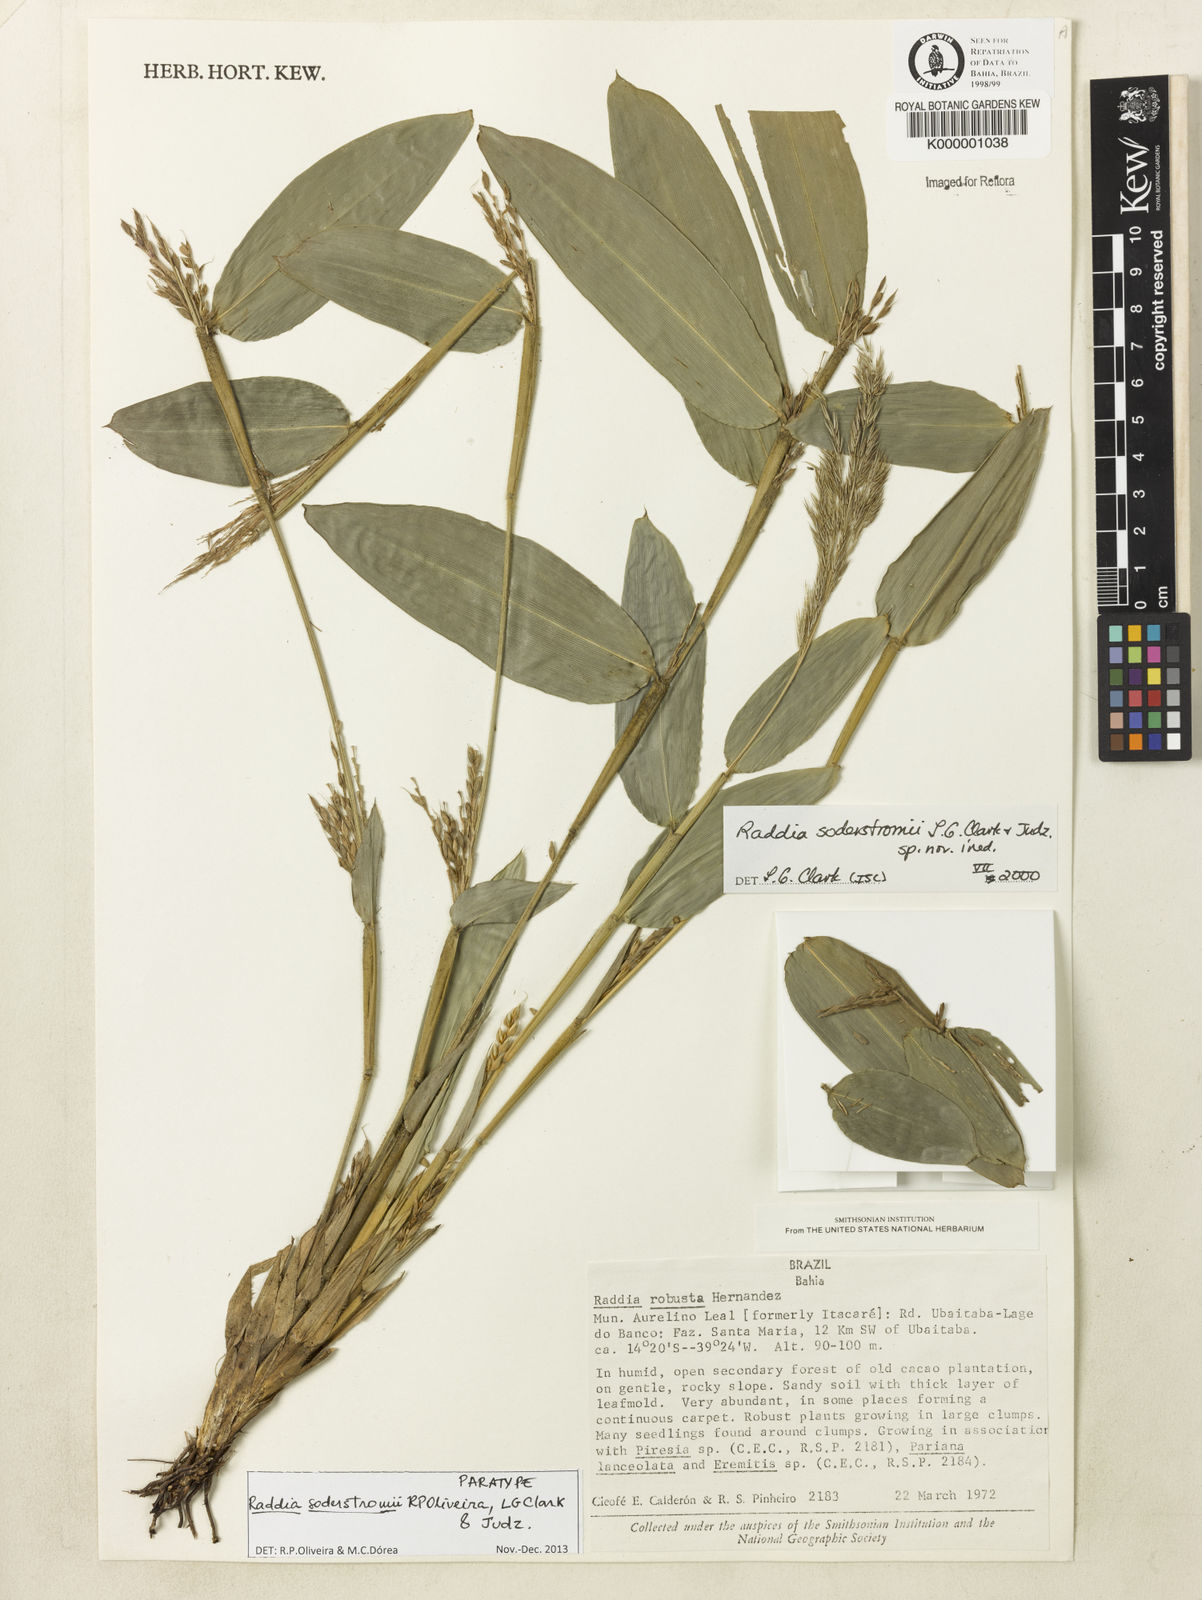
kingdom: Plantae
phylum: Tracheophyta
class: Liliopsida
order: Poales
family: Poaceae
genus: Raddia
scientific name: Raddia
